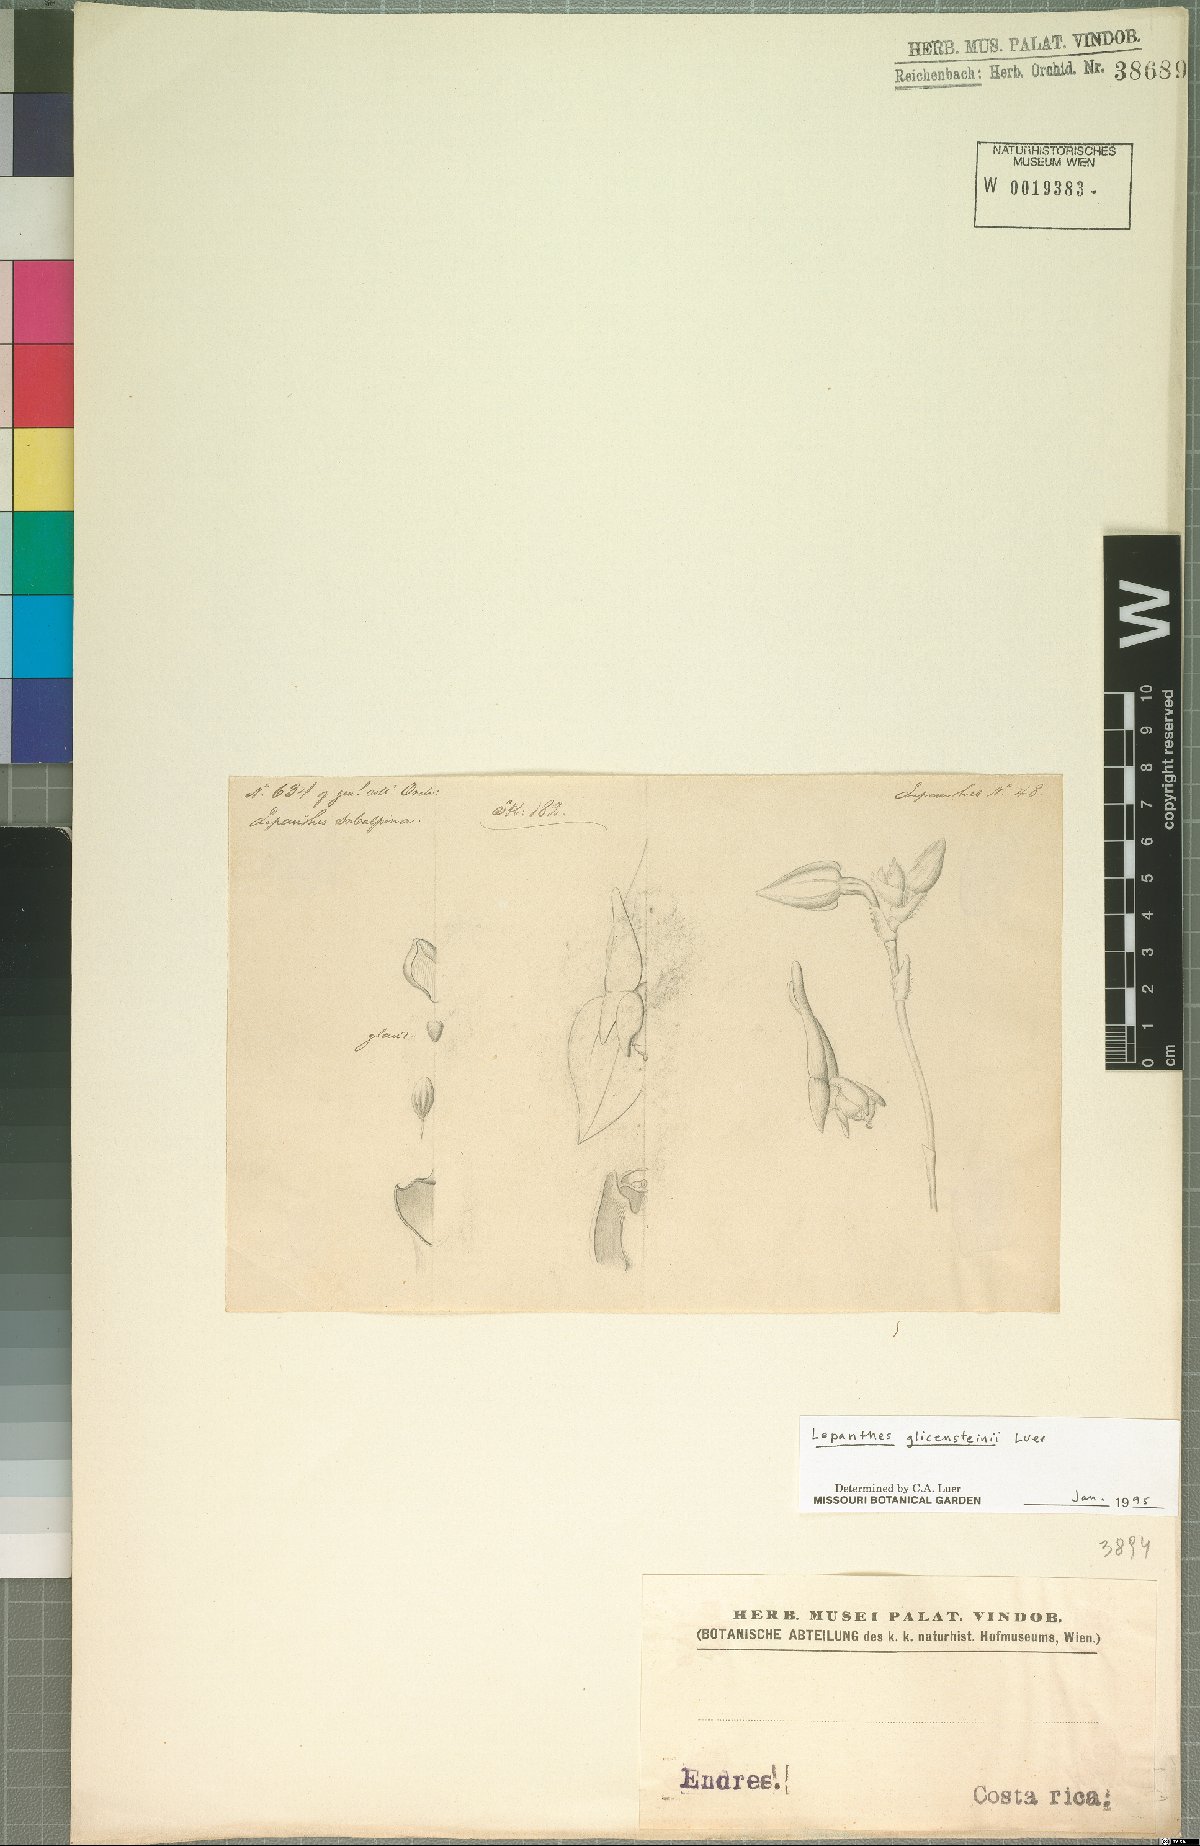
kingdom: Plantae
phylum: Tracheophyta
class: Liliopsida
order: Asparagales
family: Orchidaceae
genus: Lepanthes
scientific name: Lepanthes glicensteinii
